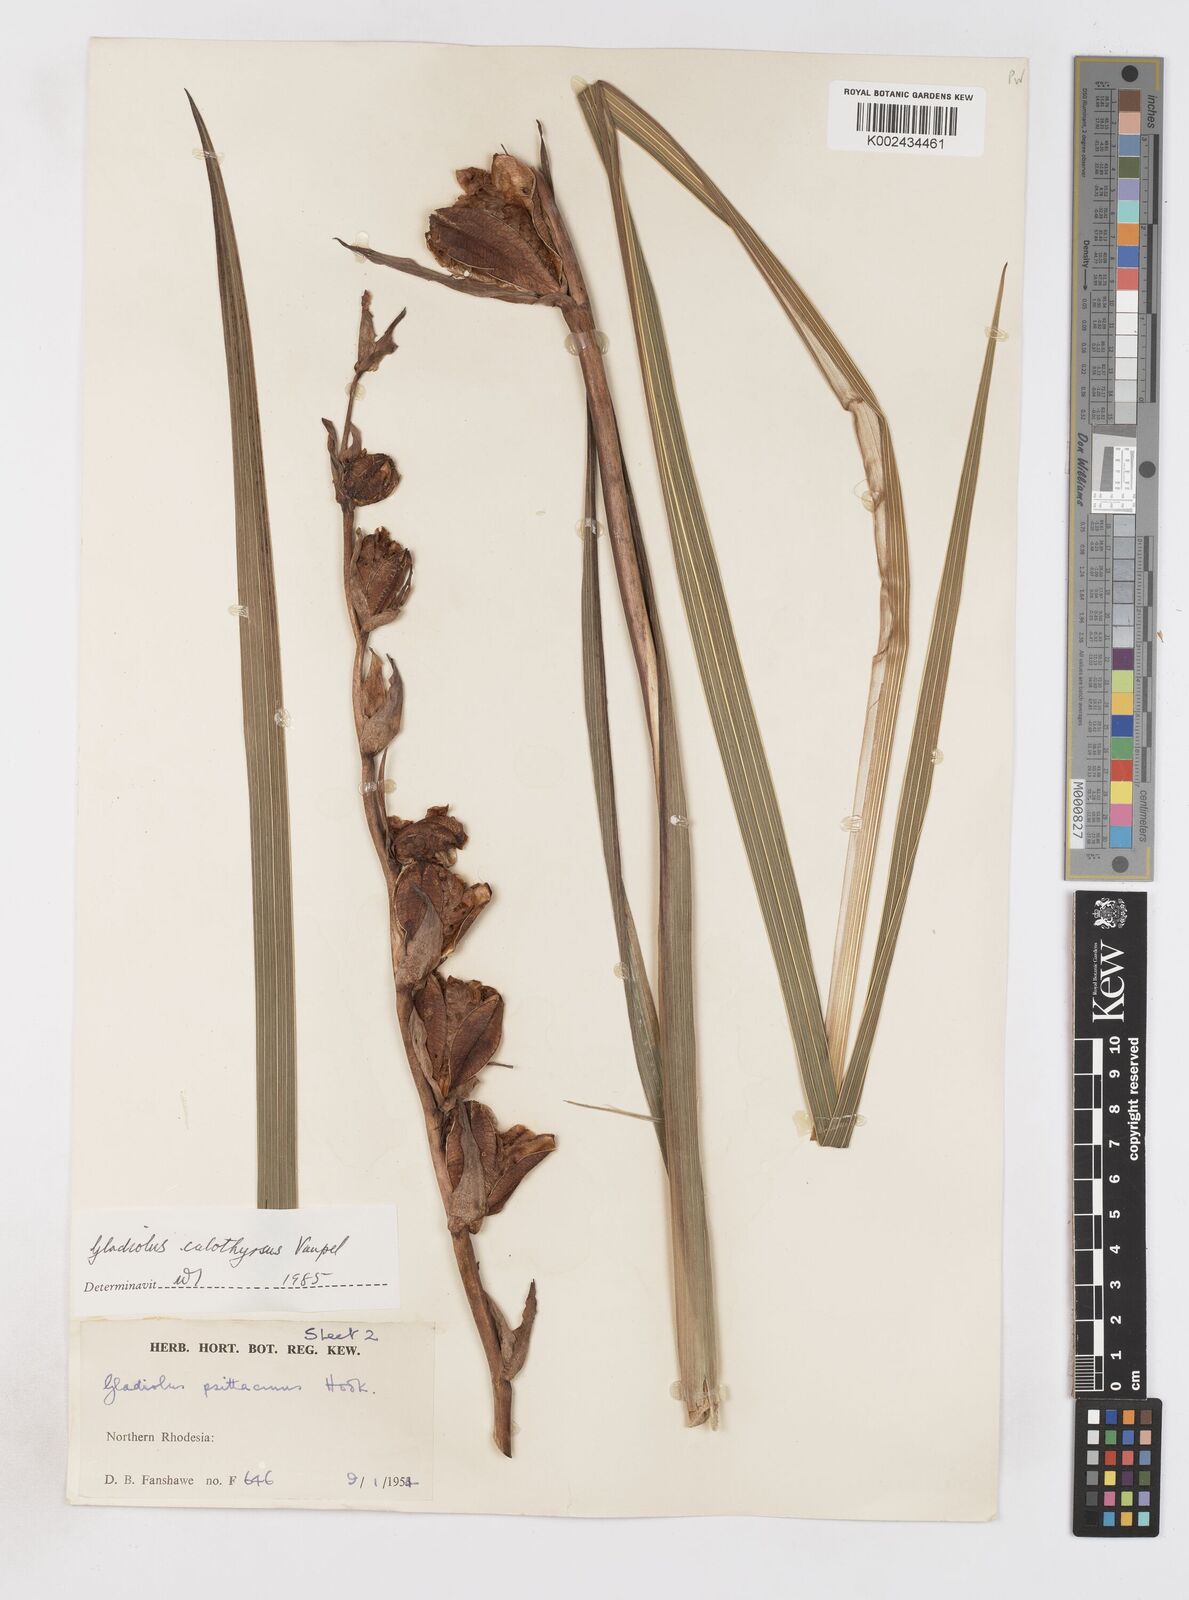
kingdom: Plantae
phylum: Tracheophyta
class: Liliopsida
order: Asparagales
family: Iridaceae
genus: Gladiolus
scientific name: Gladiolus dalenii
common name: Cornflag
